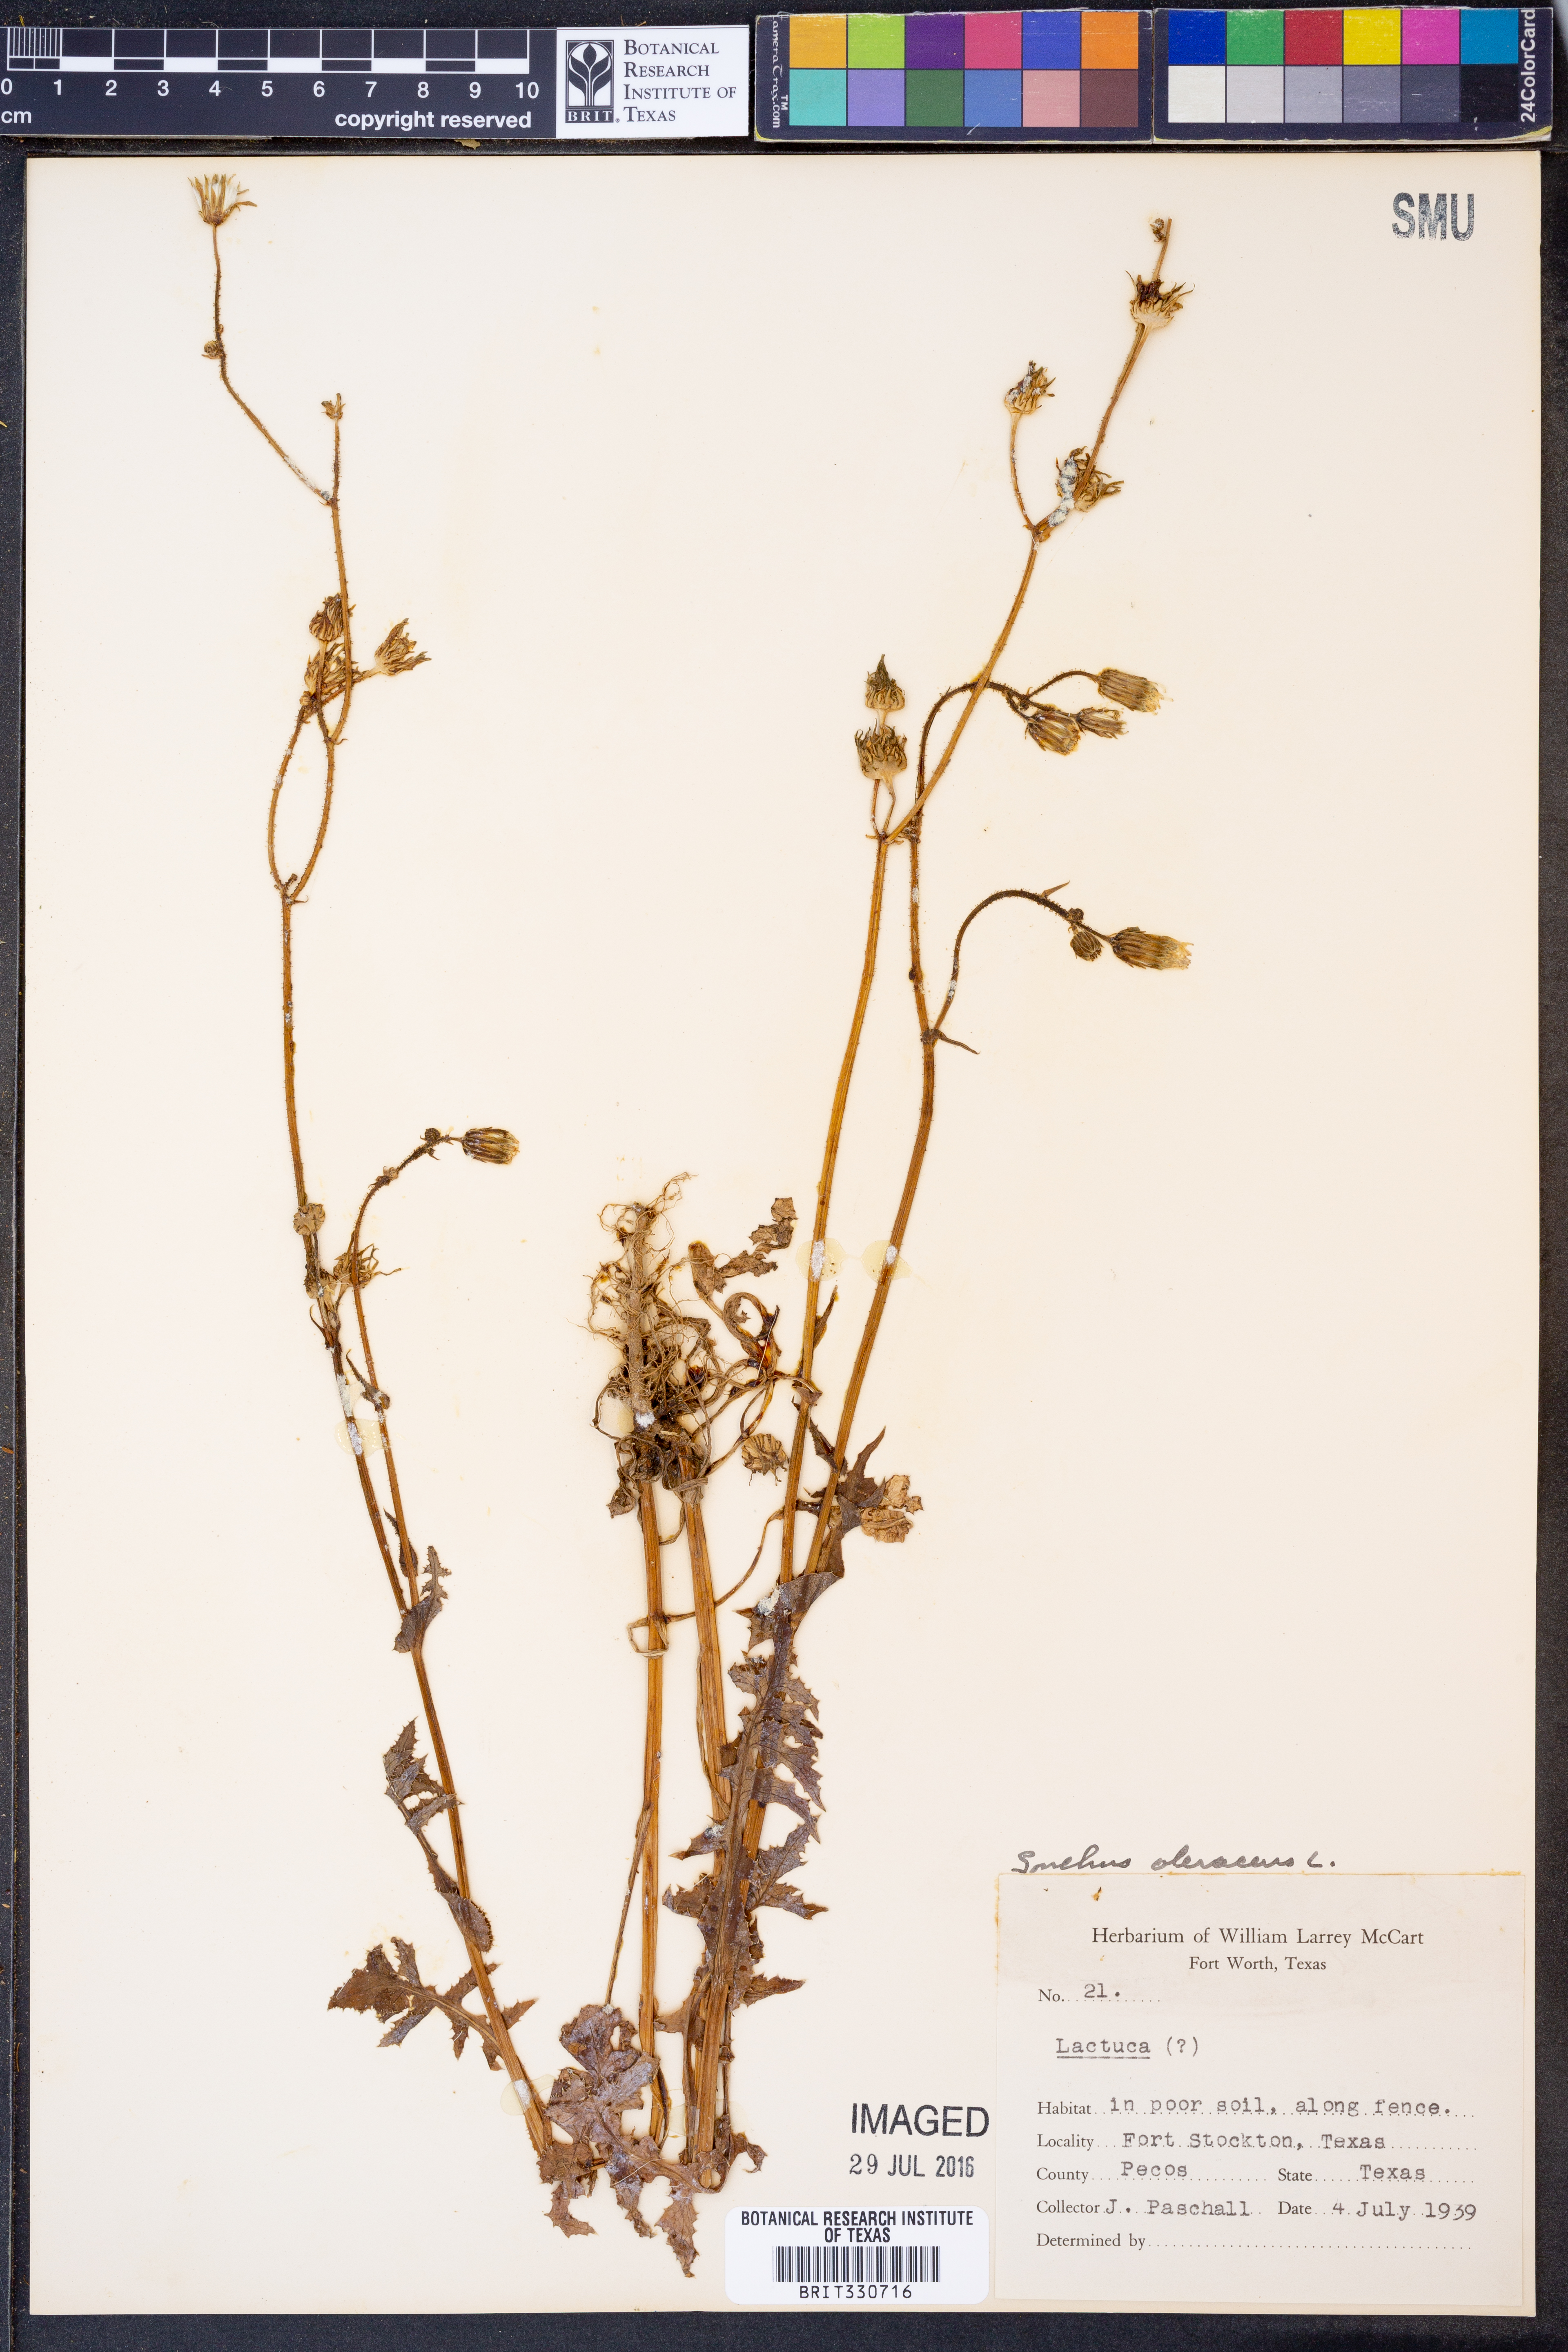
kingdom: Plantae
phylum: Tracheophyta
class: Magnoliopsida
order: Asterales
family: Asteraceae
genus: Sonchus
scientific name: Sonchus oleraceus
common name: Common sowthistle
